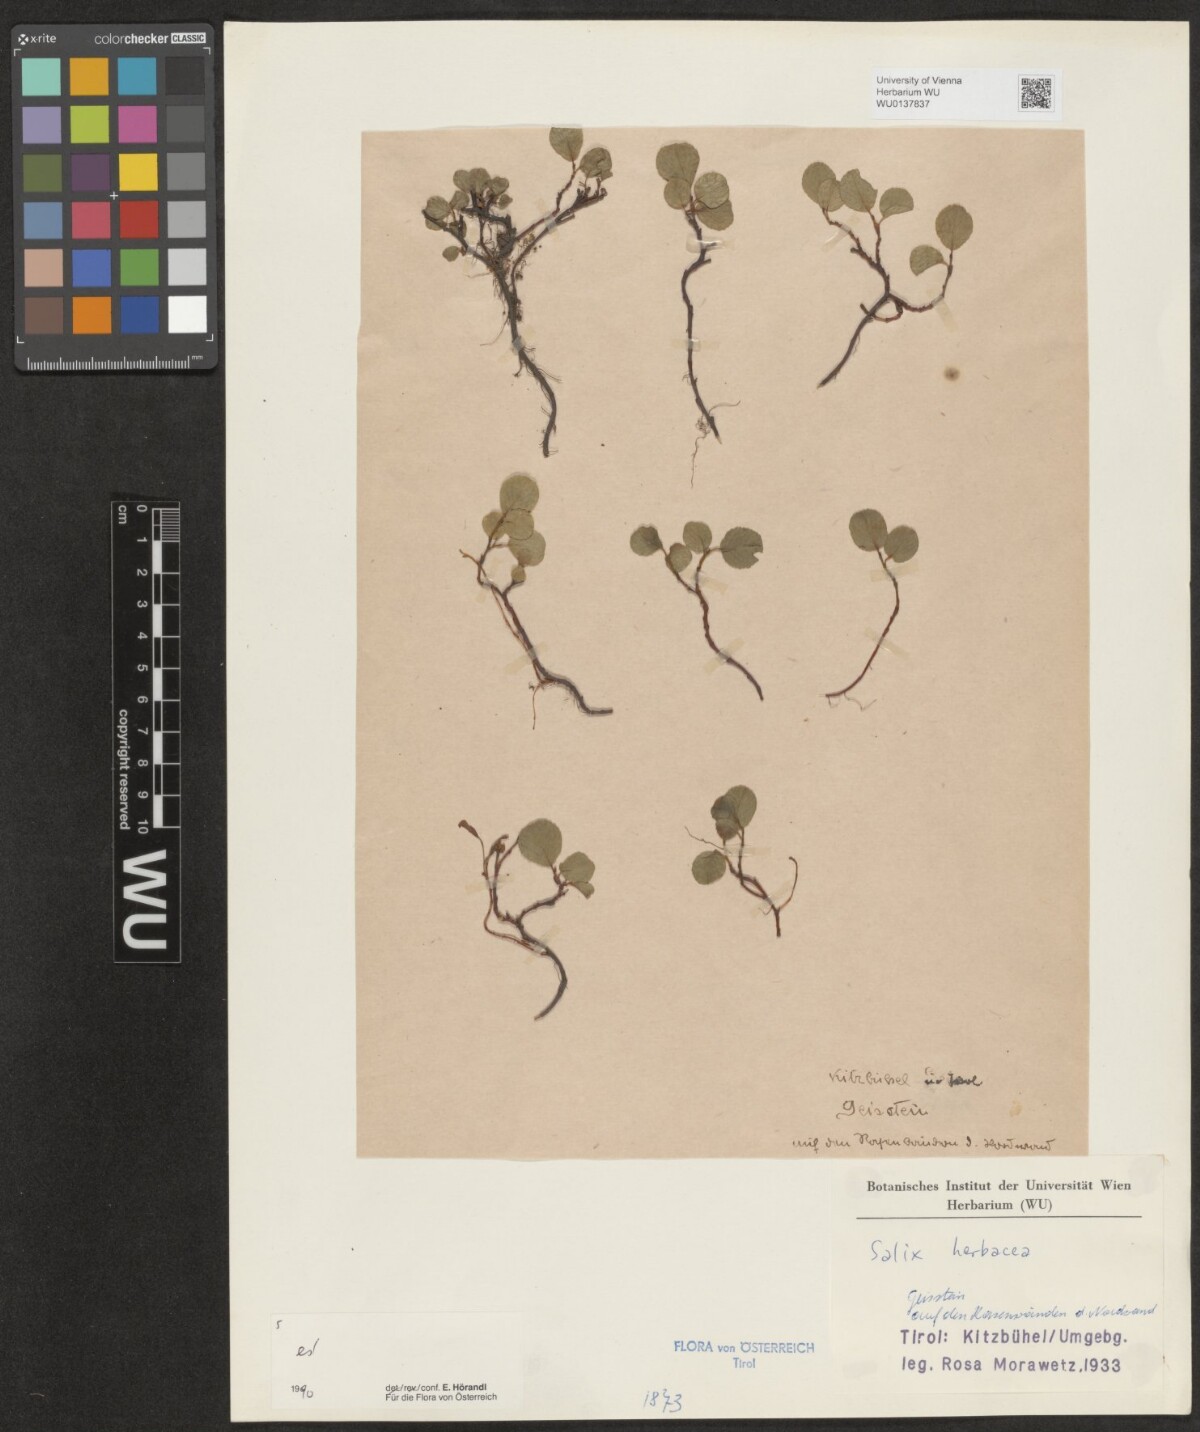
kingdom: Plantae
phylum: Tracheophyta
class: Magnoliopsida
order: Malpighiales
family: Salicaceae
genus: Salix
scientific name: Salix herbacea
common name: Dwarf willow
